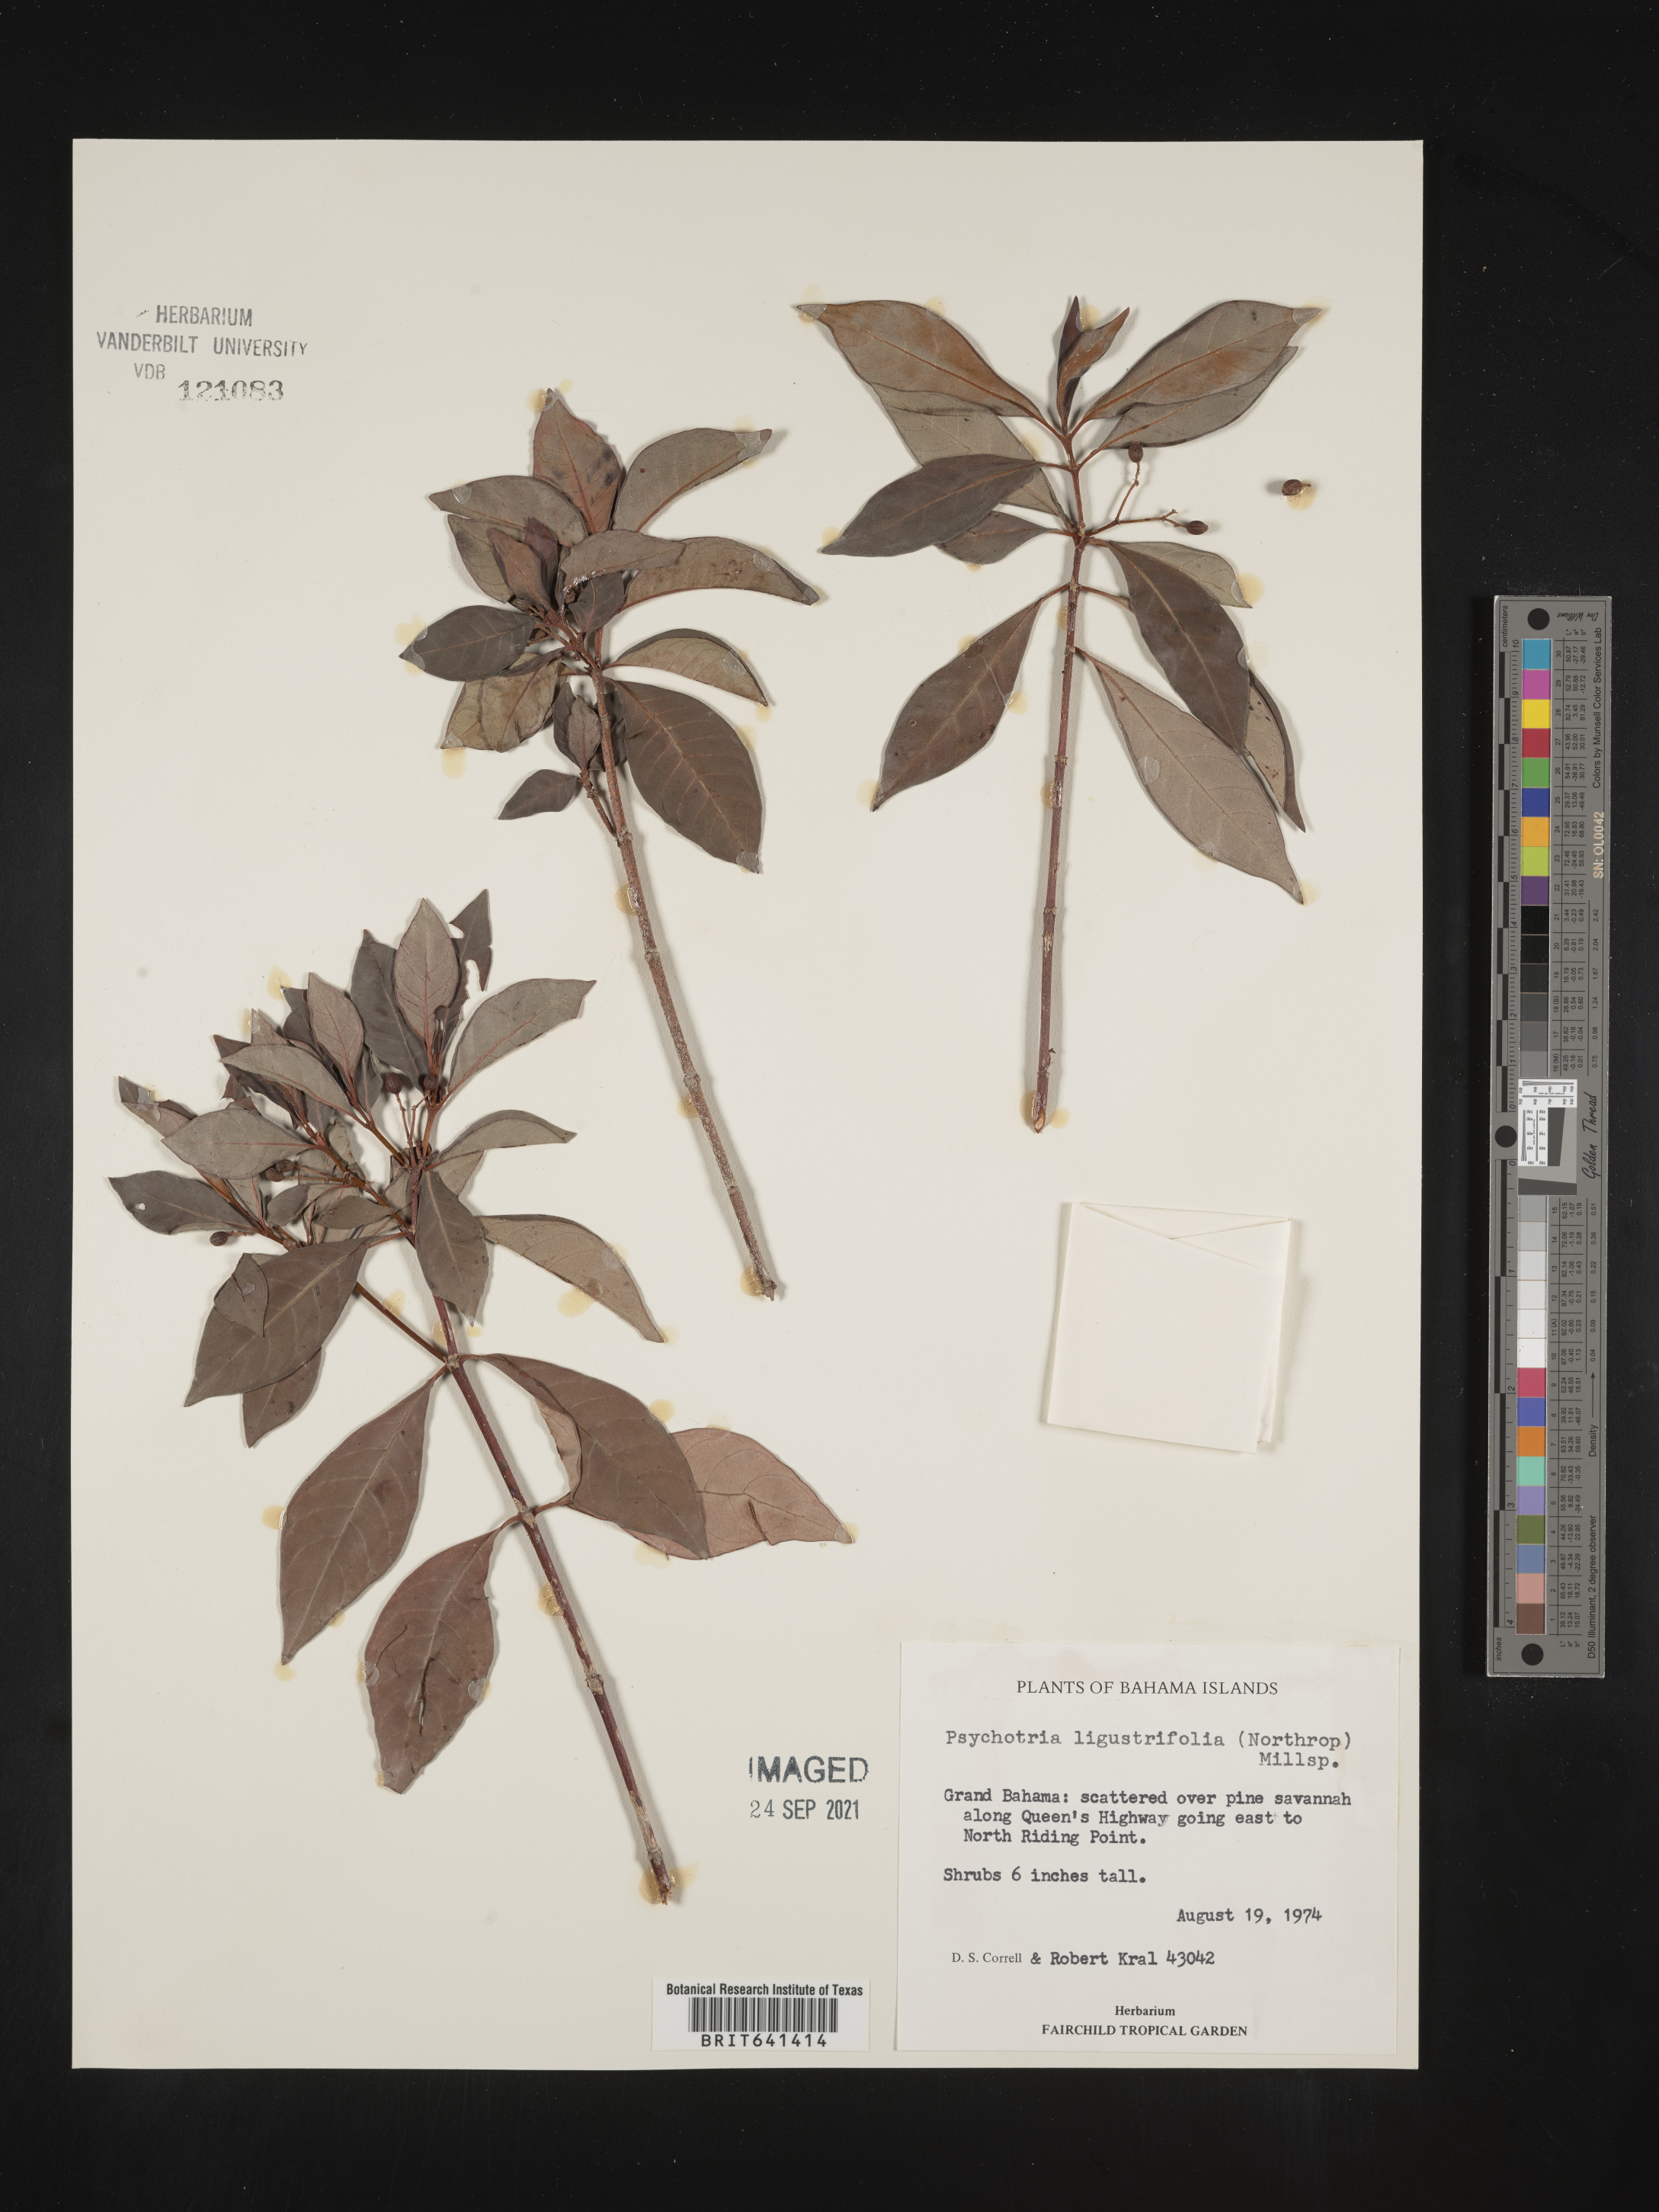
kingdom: Plantae
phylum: Tracheophyta
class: Magnoliopsida
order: Gentianales
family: Rubiaceae
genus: Psychotria
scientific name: Psychotria
